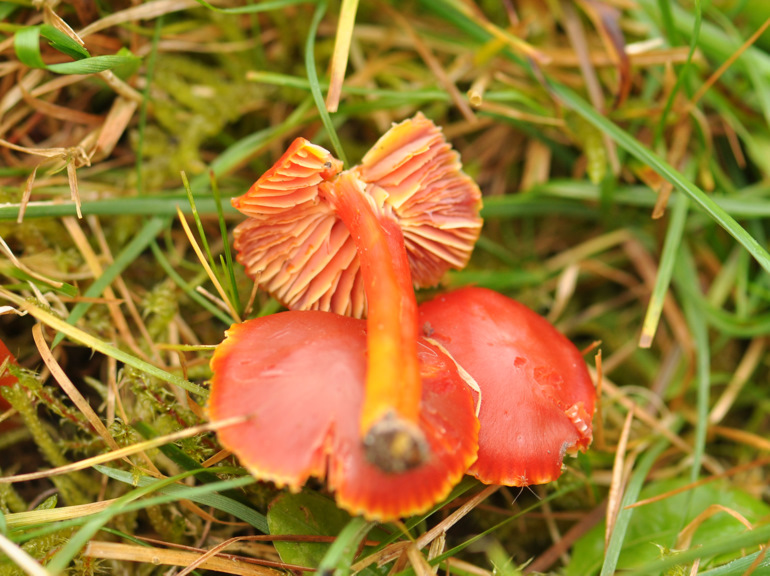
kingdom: Fungi
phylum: Basidiomycota
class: Agaricomycetes
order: Agaricales
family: Hygrophoraceae
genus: Hygrocybe
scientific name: Hygrocybe coccinea
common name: cinnober-vokshat
